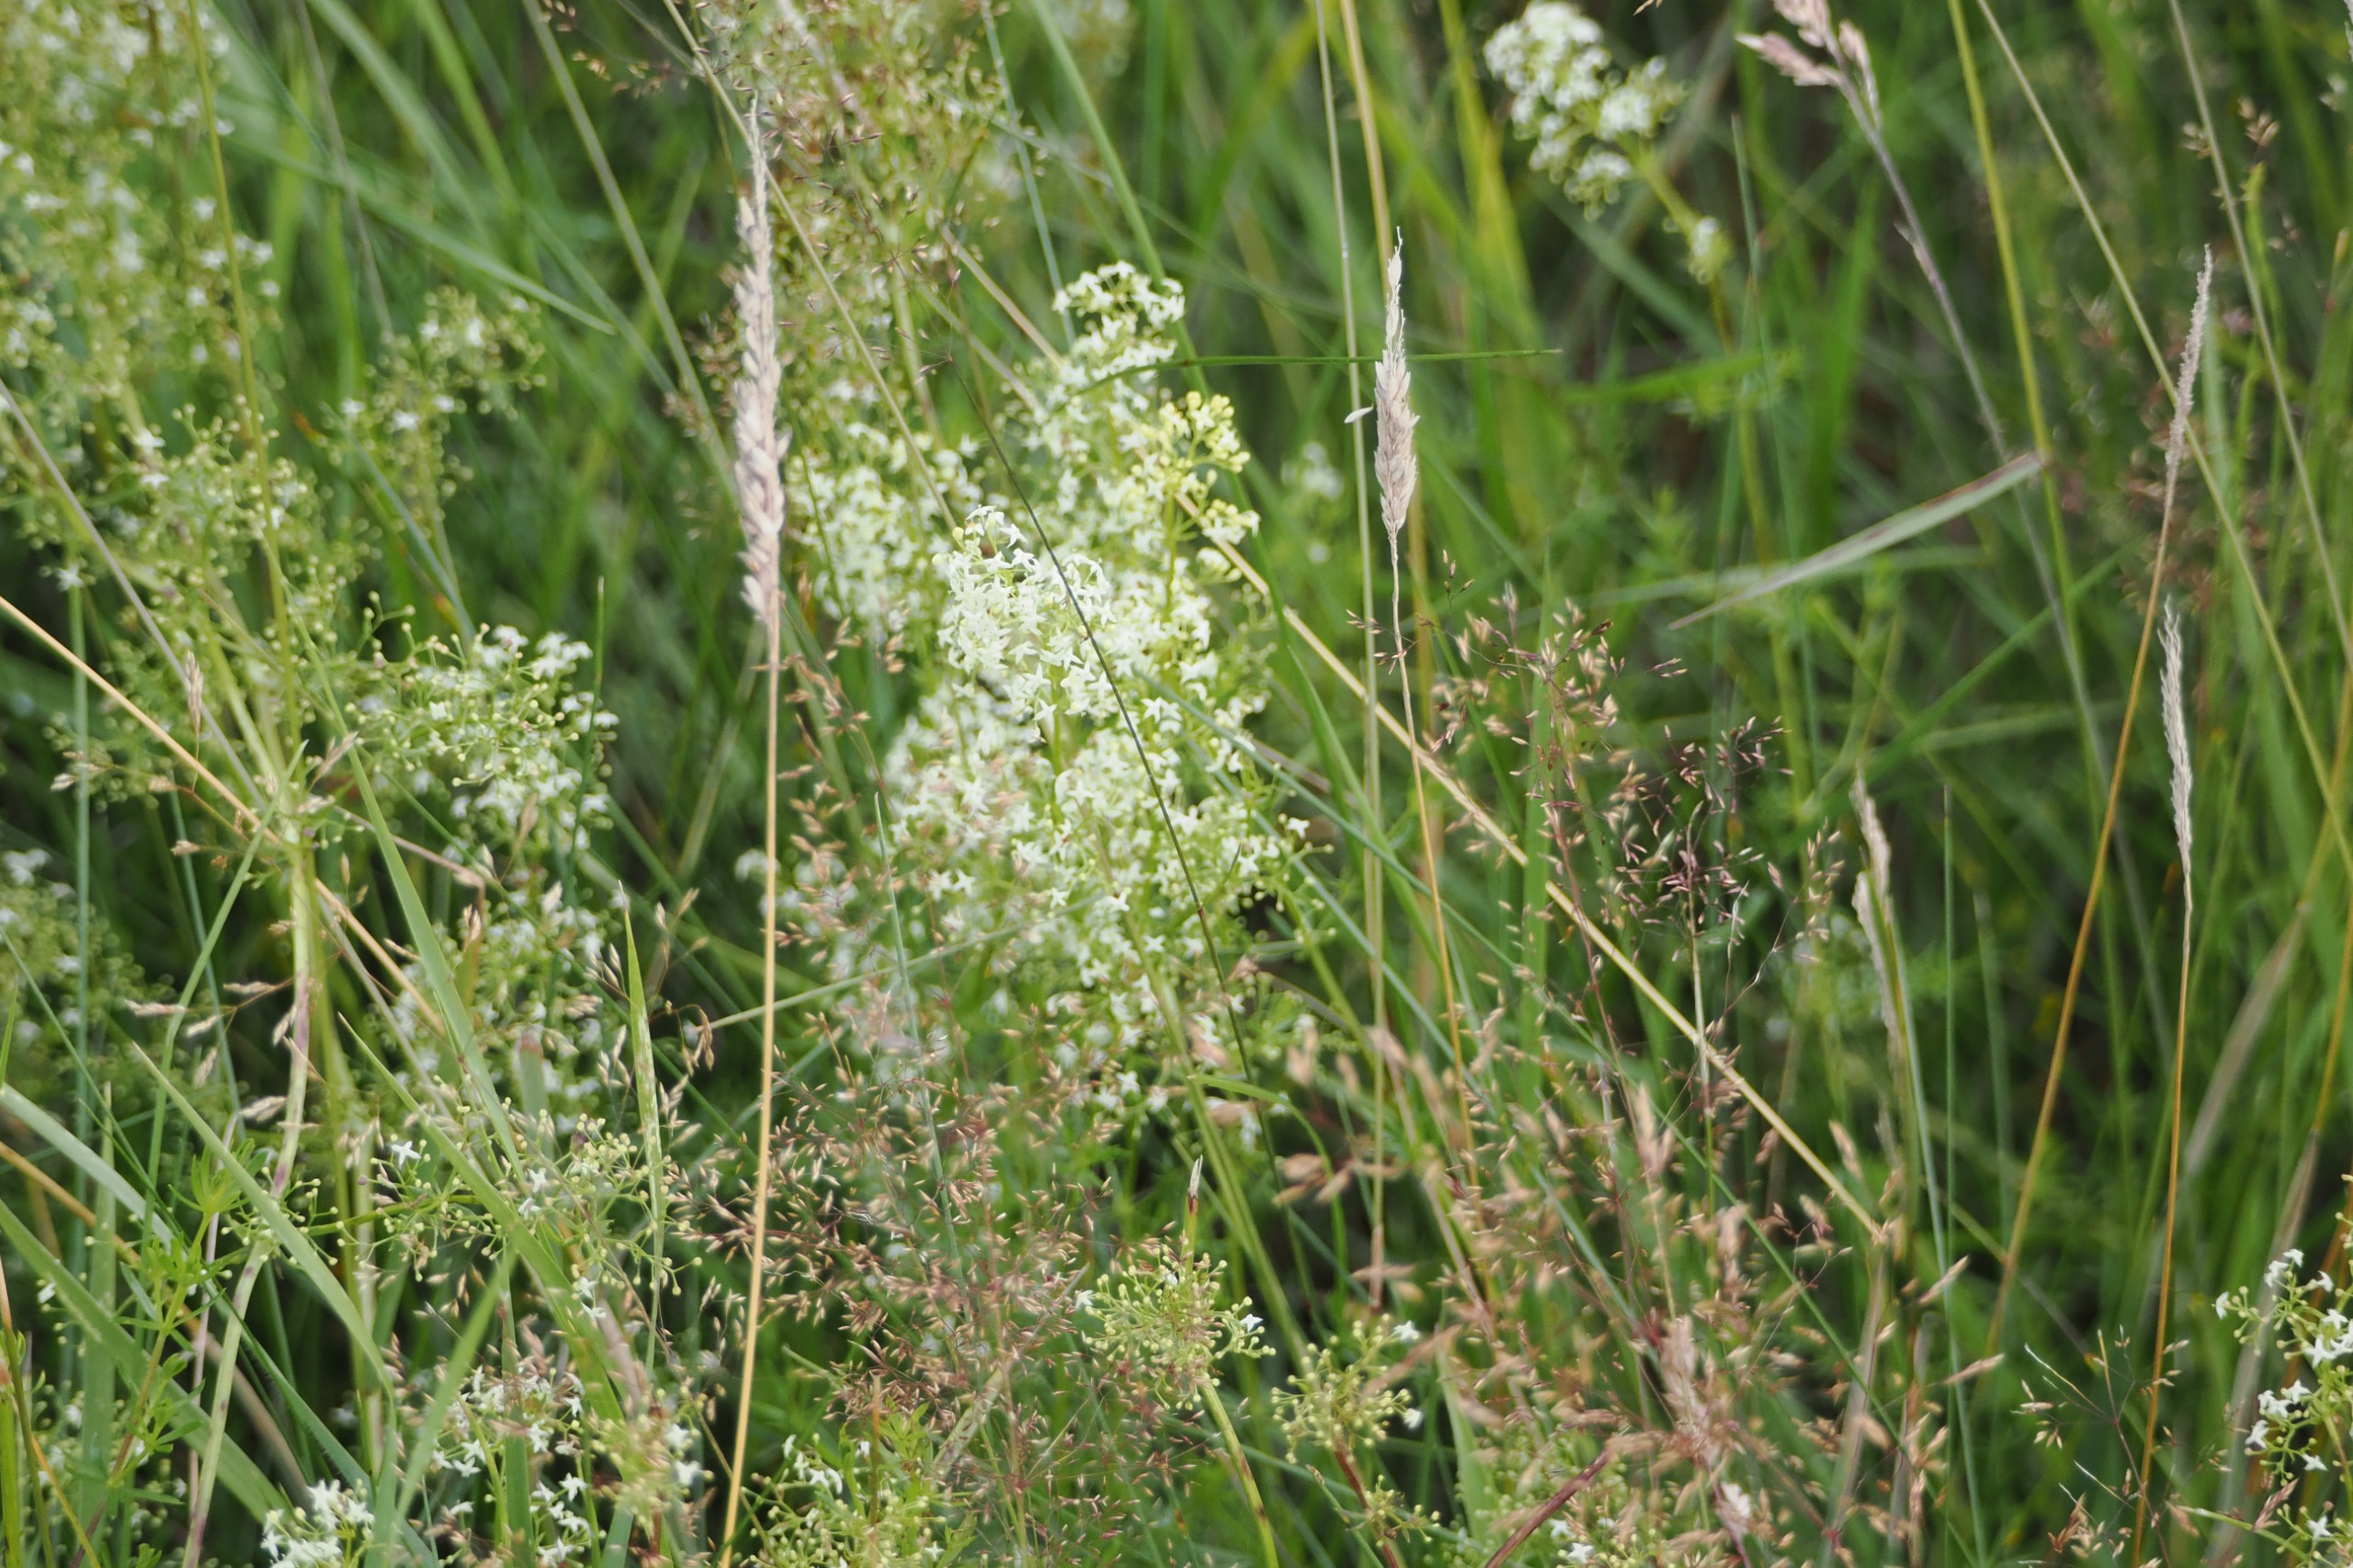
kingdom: Plantae
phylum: Tracheophyta
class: Magnoliopsida
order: Gentianales
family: Rubiaceae
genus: Galium
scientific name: Galium mollugo
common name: Hvid snerre
